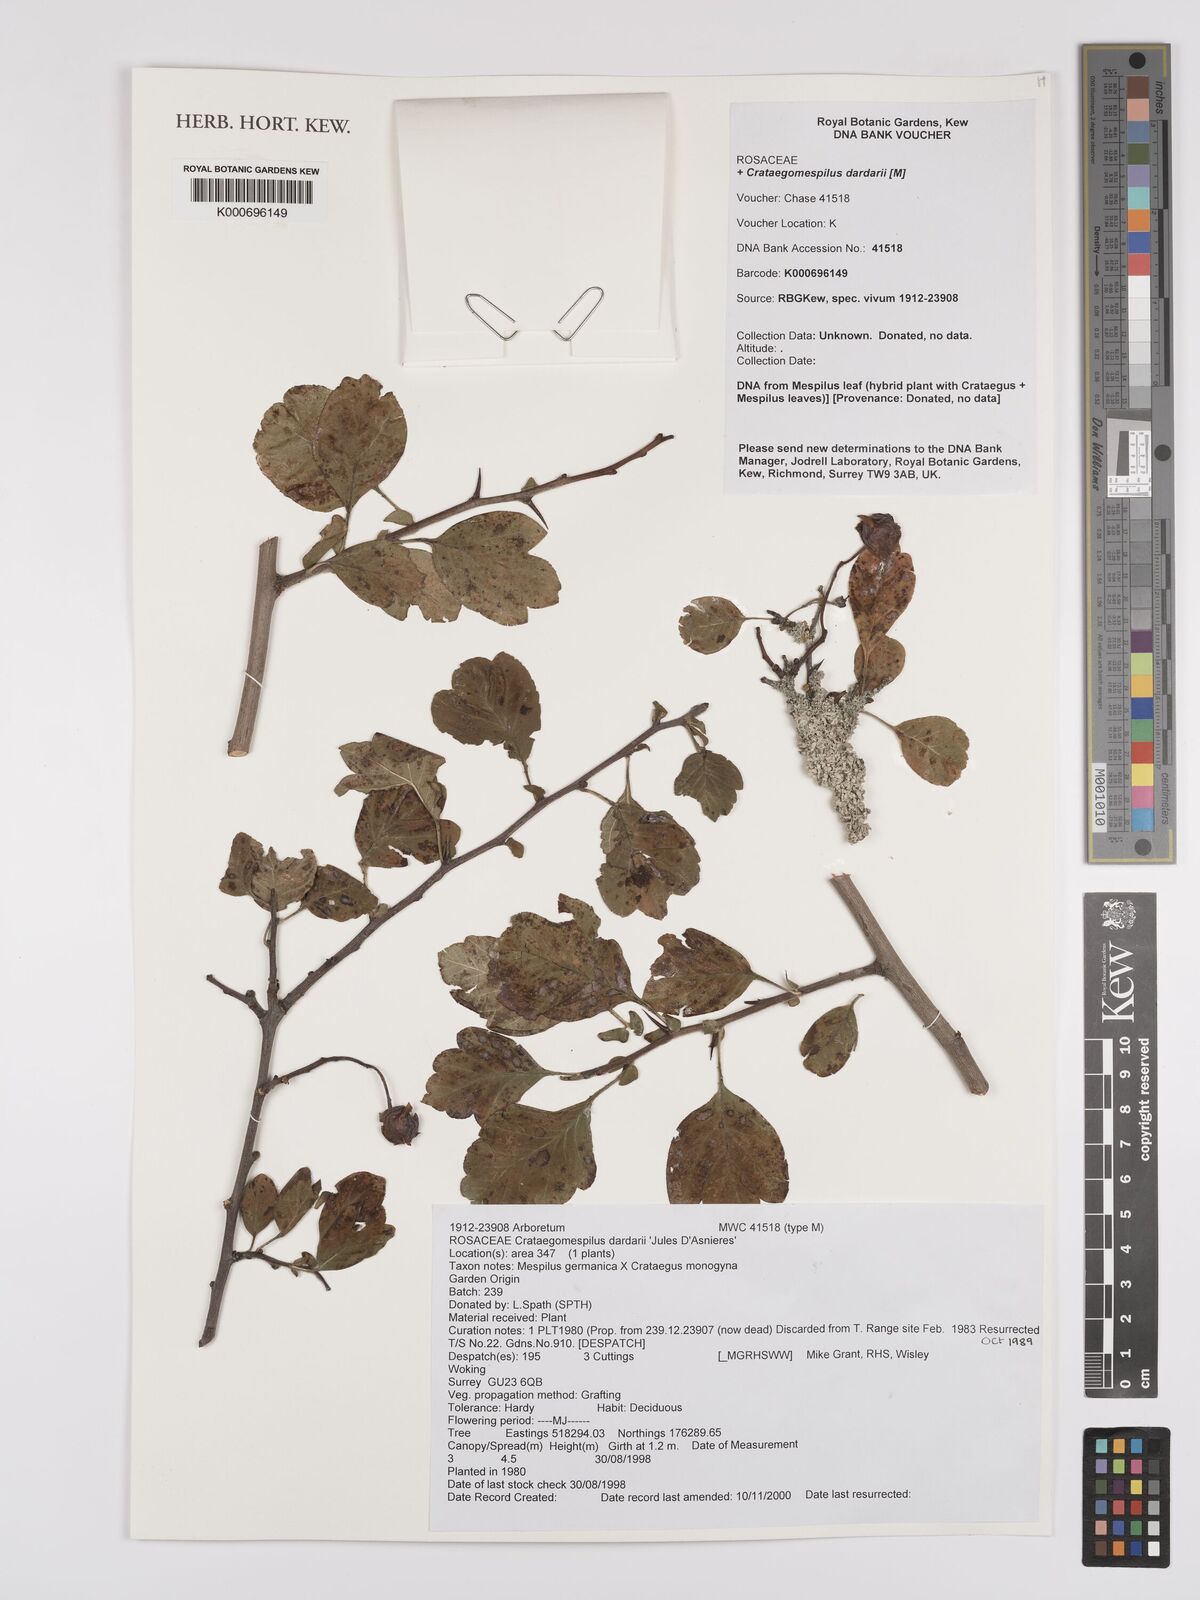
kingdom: Plantae
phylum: Tracheophyta
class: Magnoliopsida
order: Rosales
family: Rosaceae
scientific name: Rosaceae
